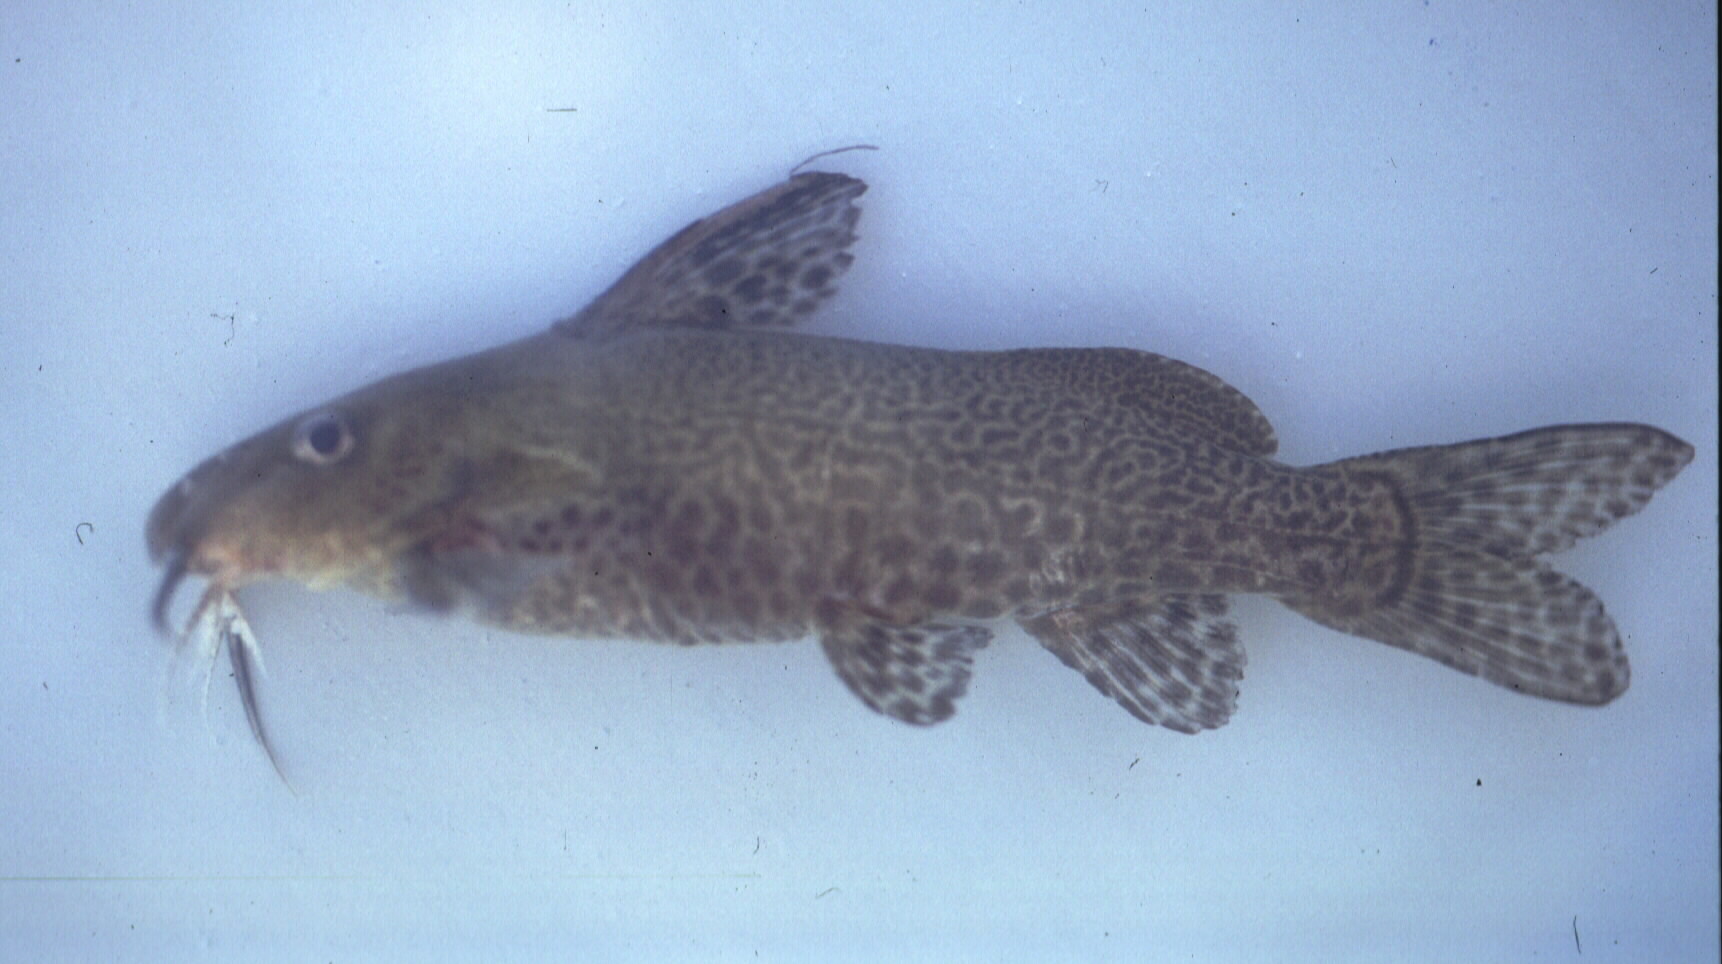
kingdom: Animalia
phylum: Chordata
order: Siluriformes
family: Mochokidae
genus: Synodontis
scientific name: Synodontis
